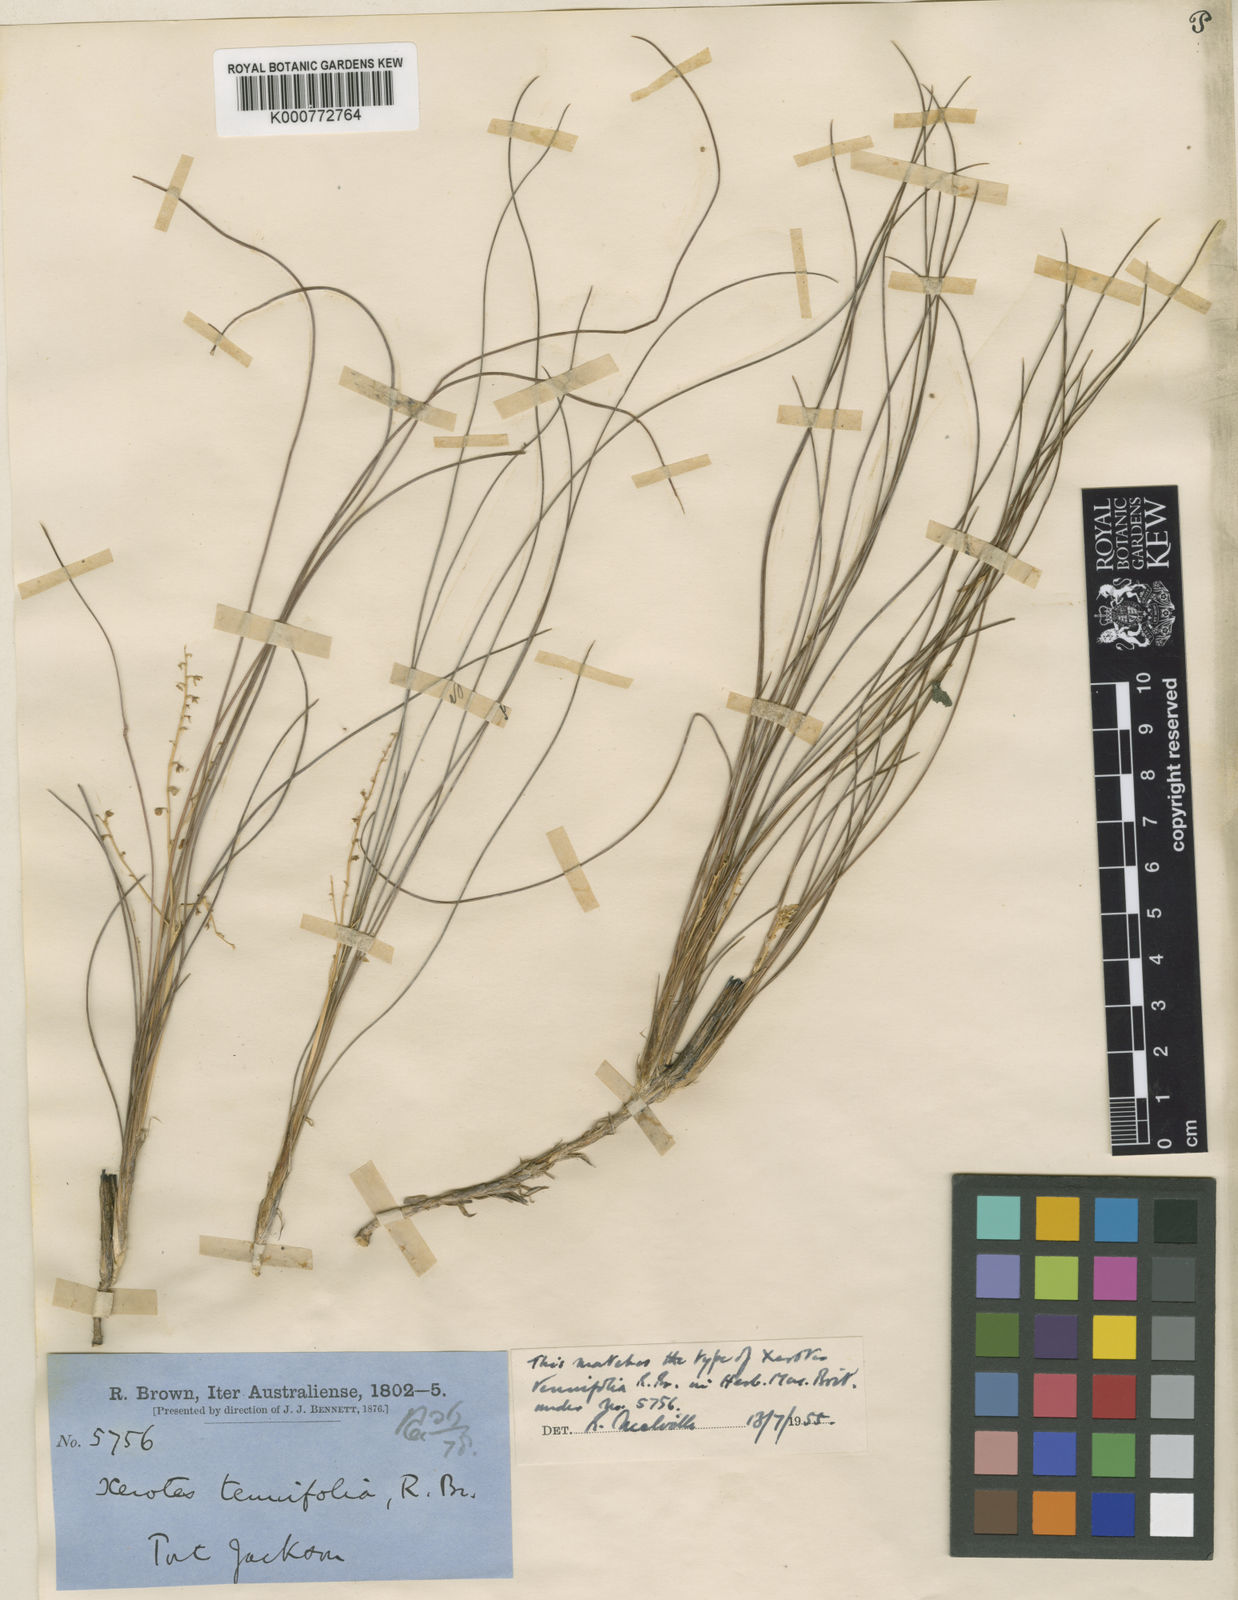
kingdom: Plantae
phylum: Tracheophyta
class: Liliopsida
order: Asparagales
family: Asparagaceae
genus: Lomandra
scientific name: Lomandra filiformis
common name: Wattle mat-rush
